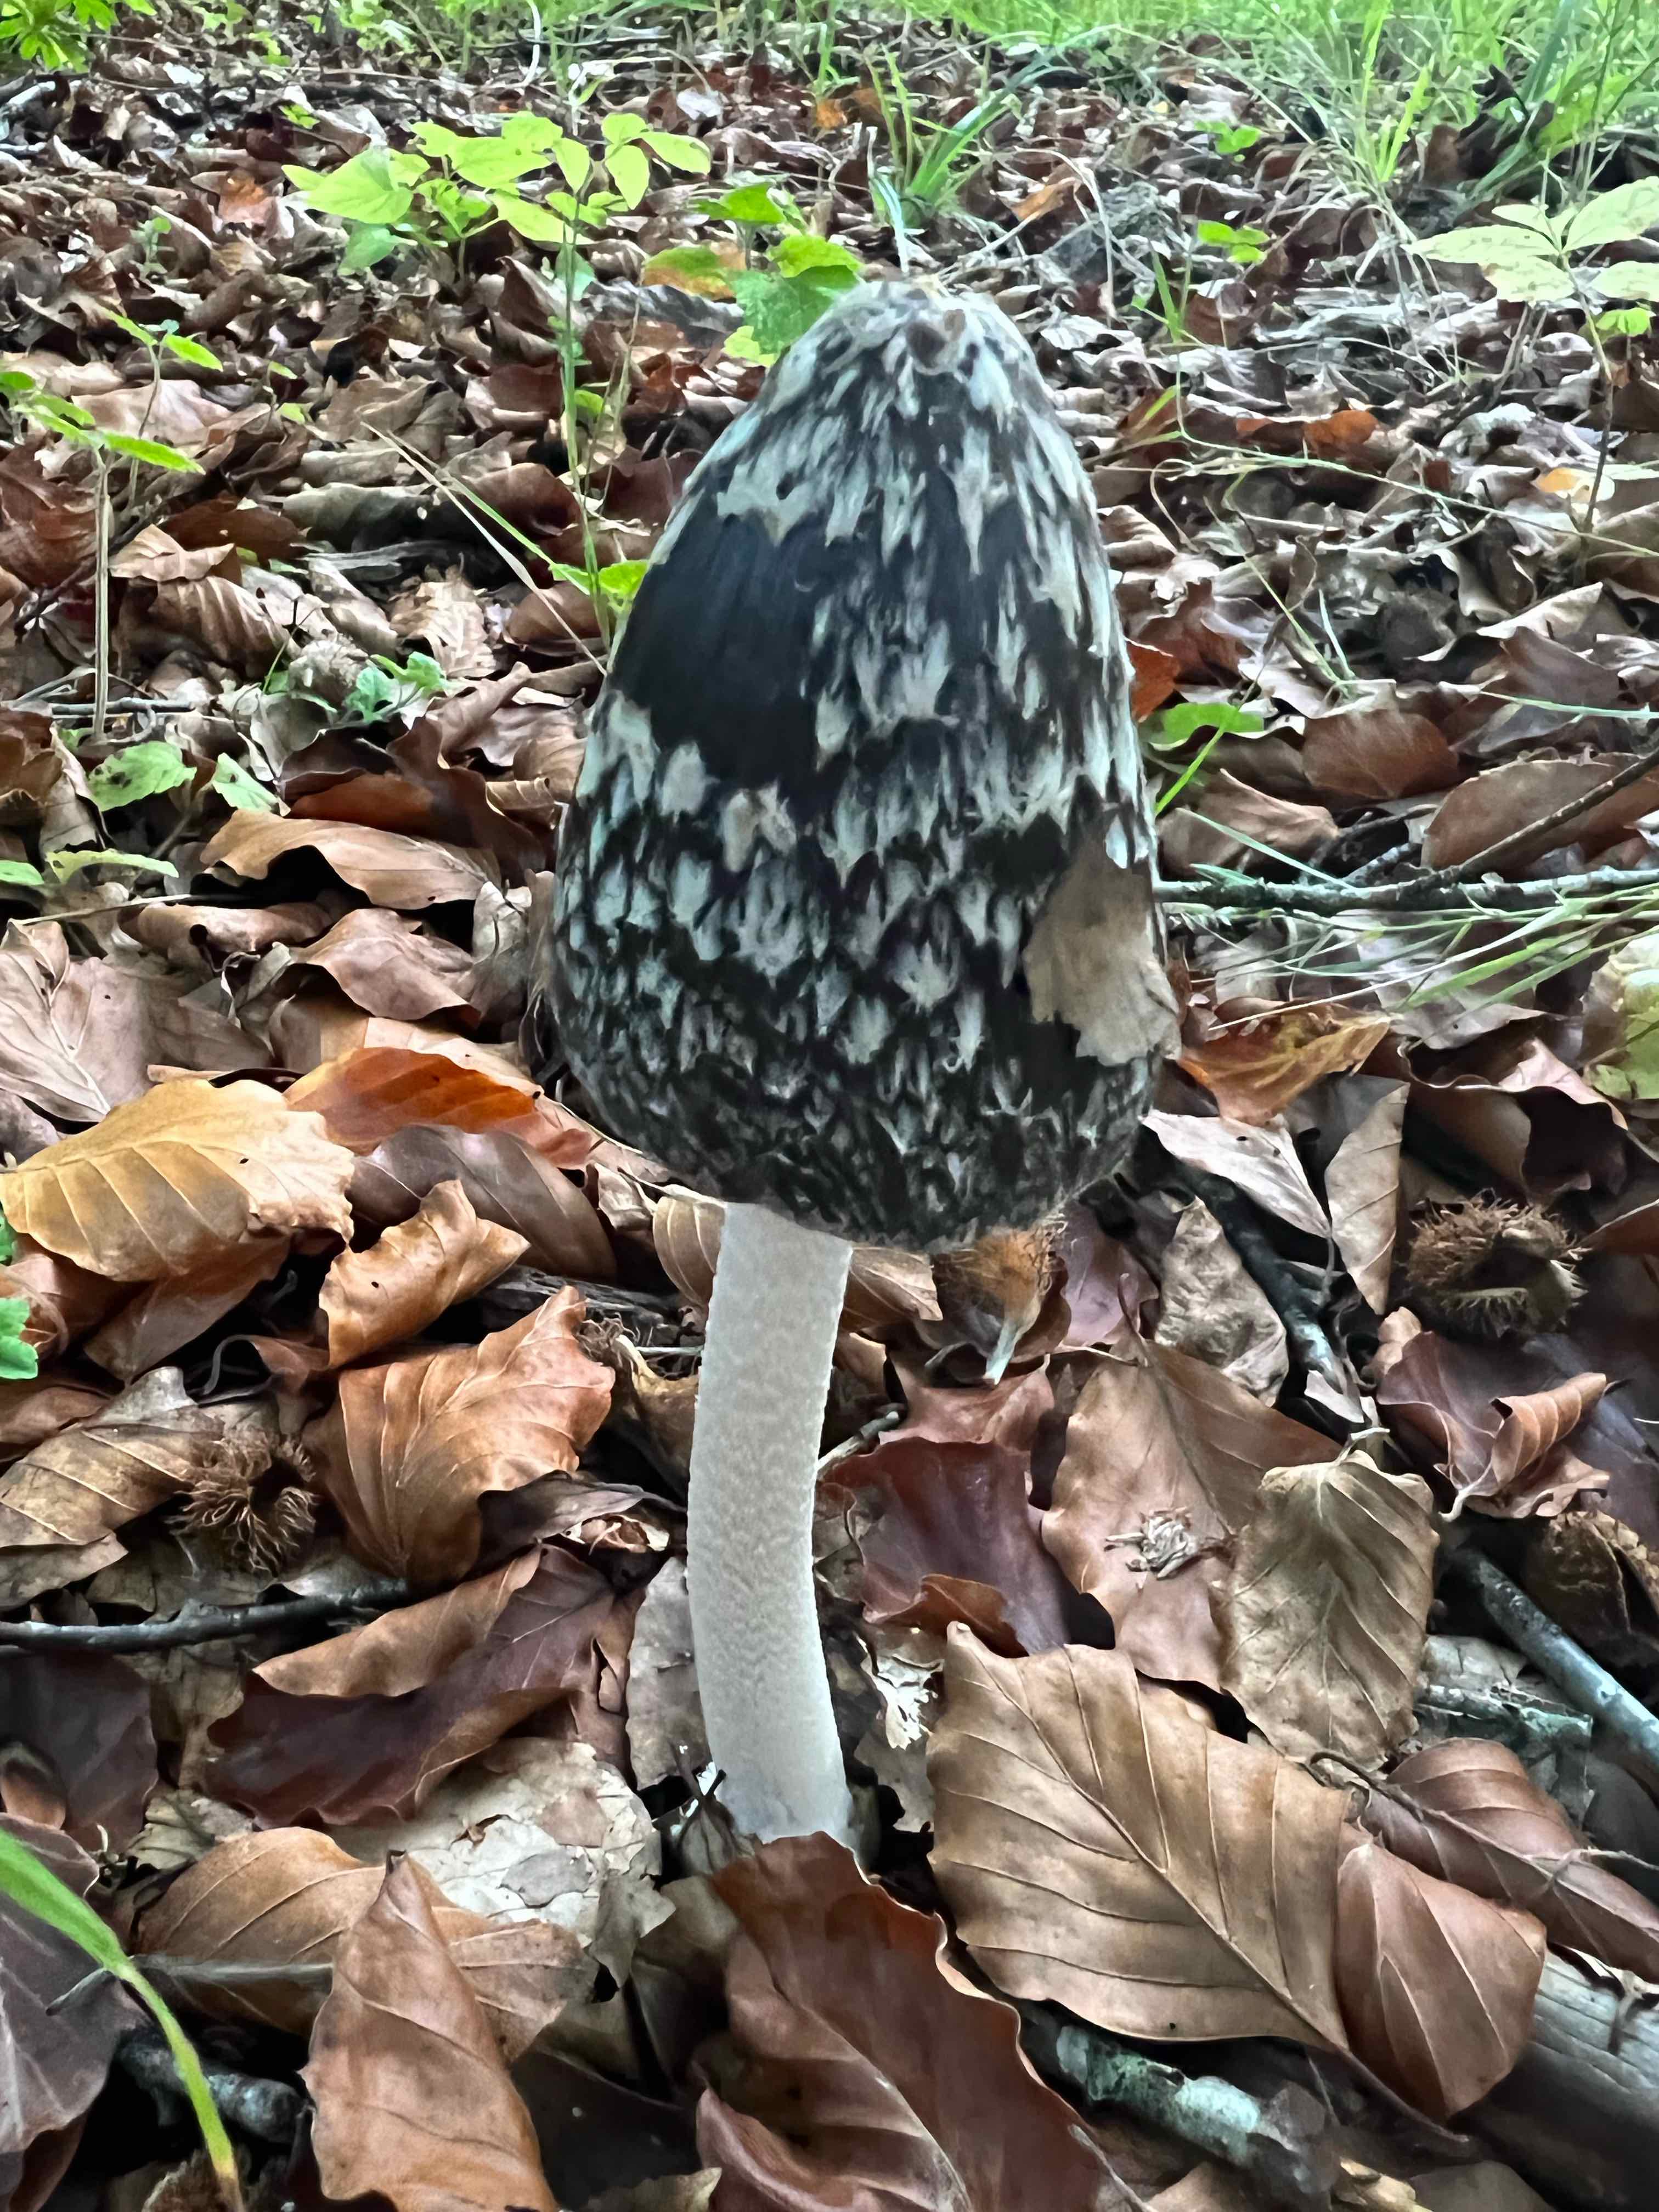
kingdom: Fungi
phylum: Basidiomycota
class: Agaricomycetes
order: Agaricales
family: Psathyrellaceae
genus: Coprinopsis
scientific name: Coprinopsis picacea
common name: skade-blækhat
